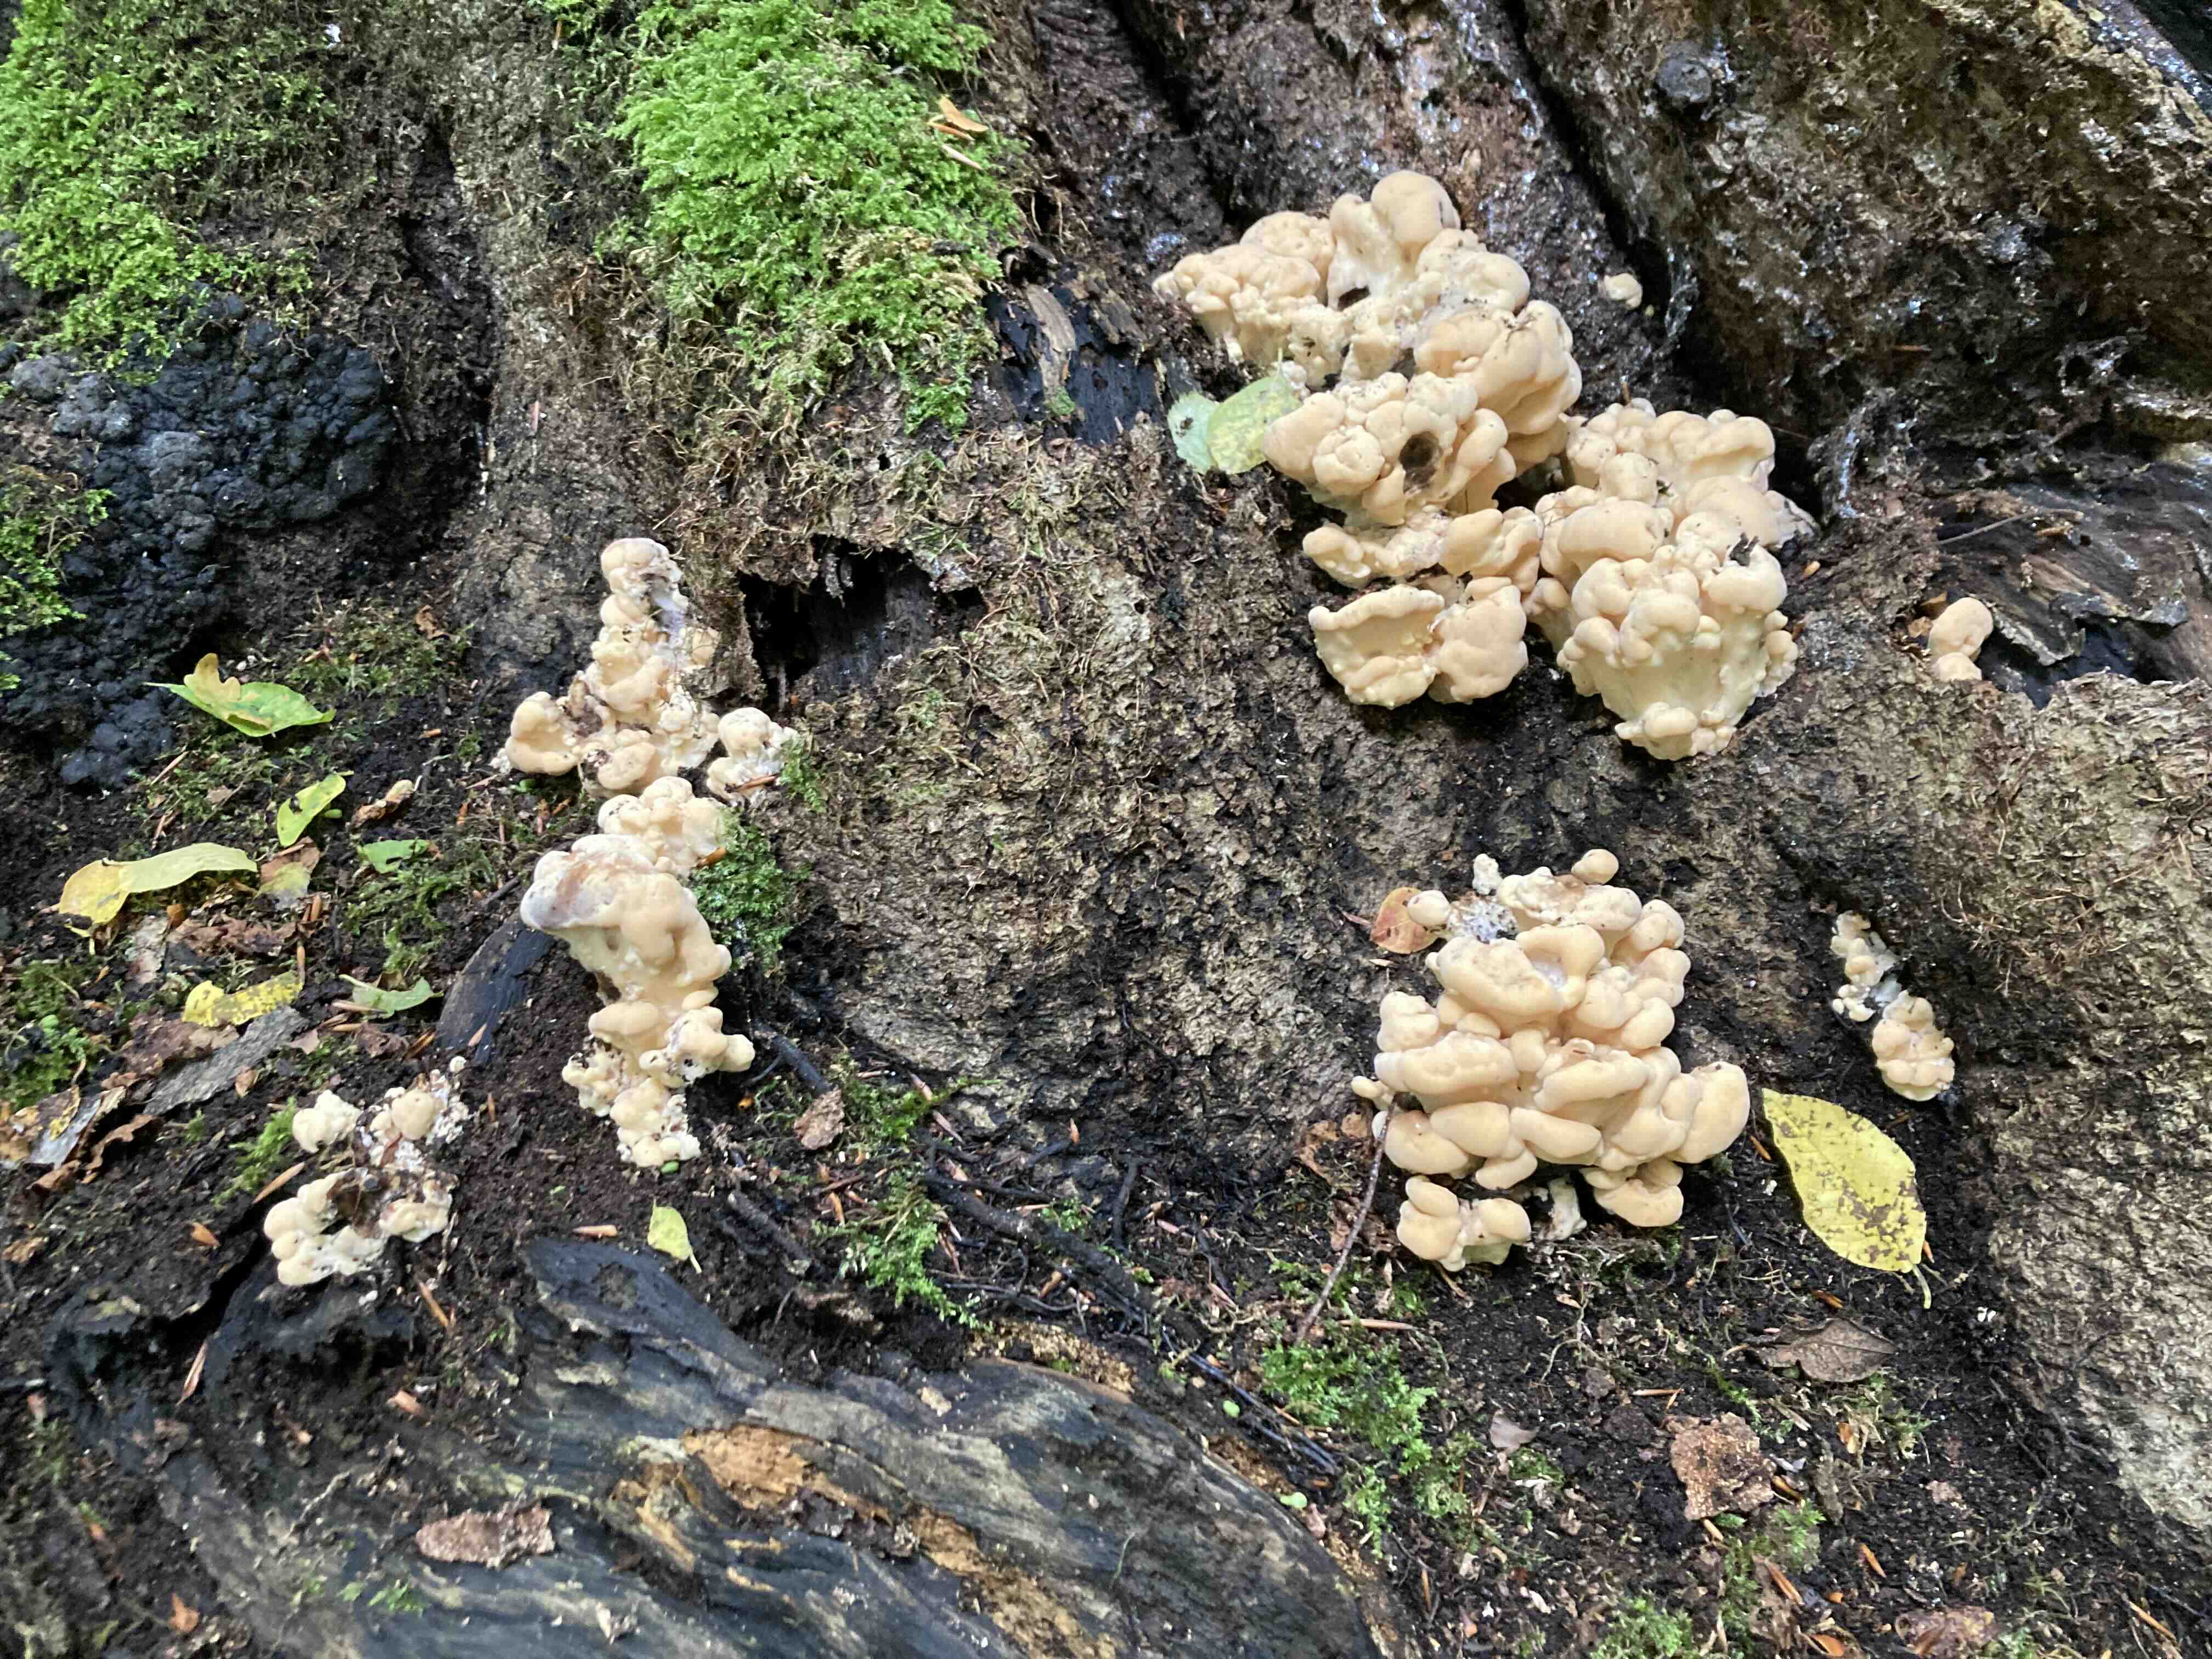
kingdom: Fungi
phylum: Basidiomycota
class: Agaricomycetes
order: Polyporales
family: Meripilaceae
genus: Meripilus
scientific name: Meripilus giganteus
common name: kæmpeporesvamp
